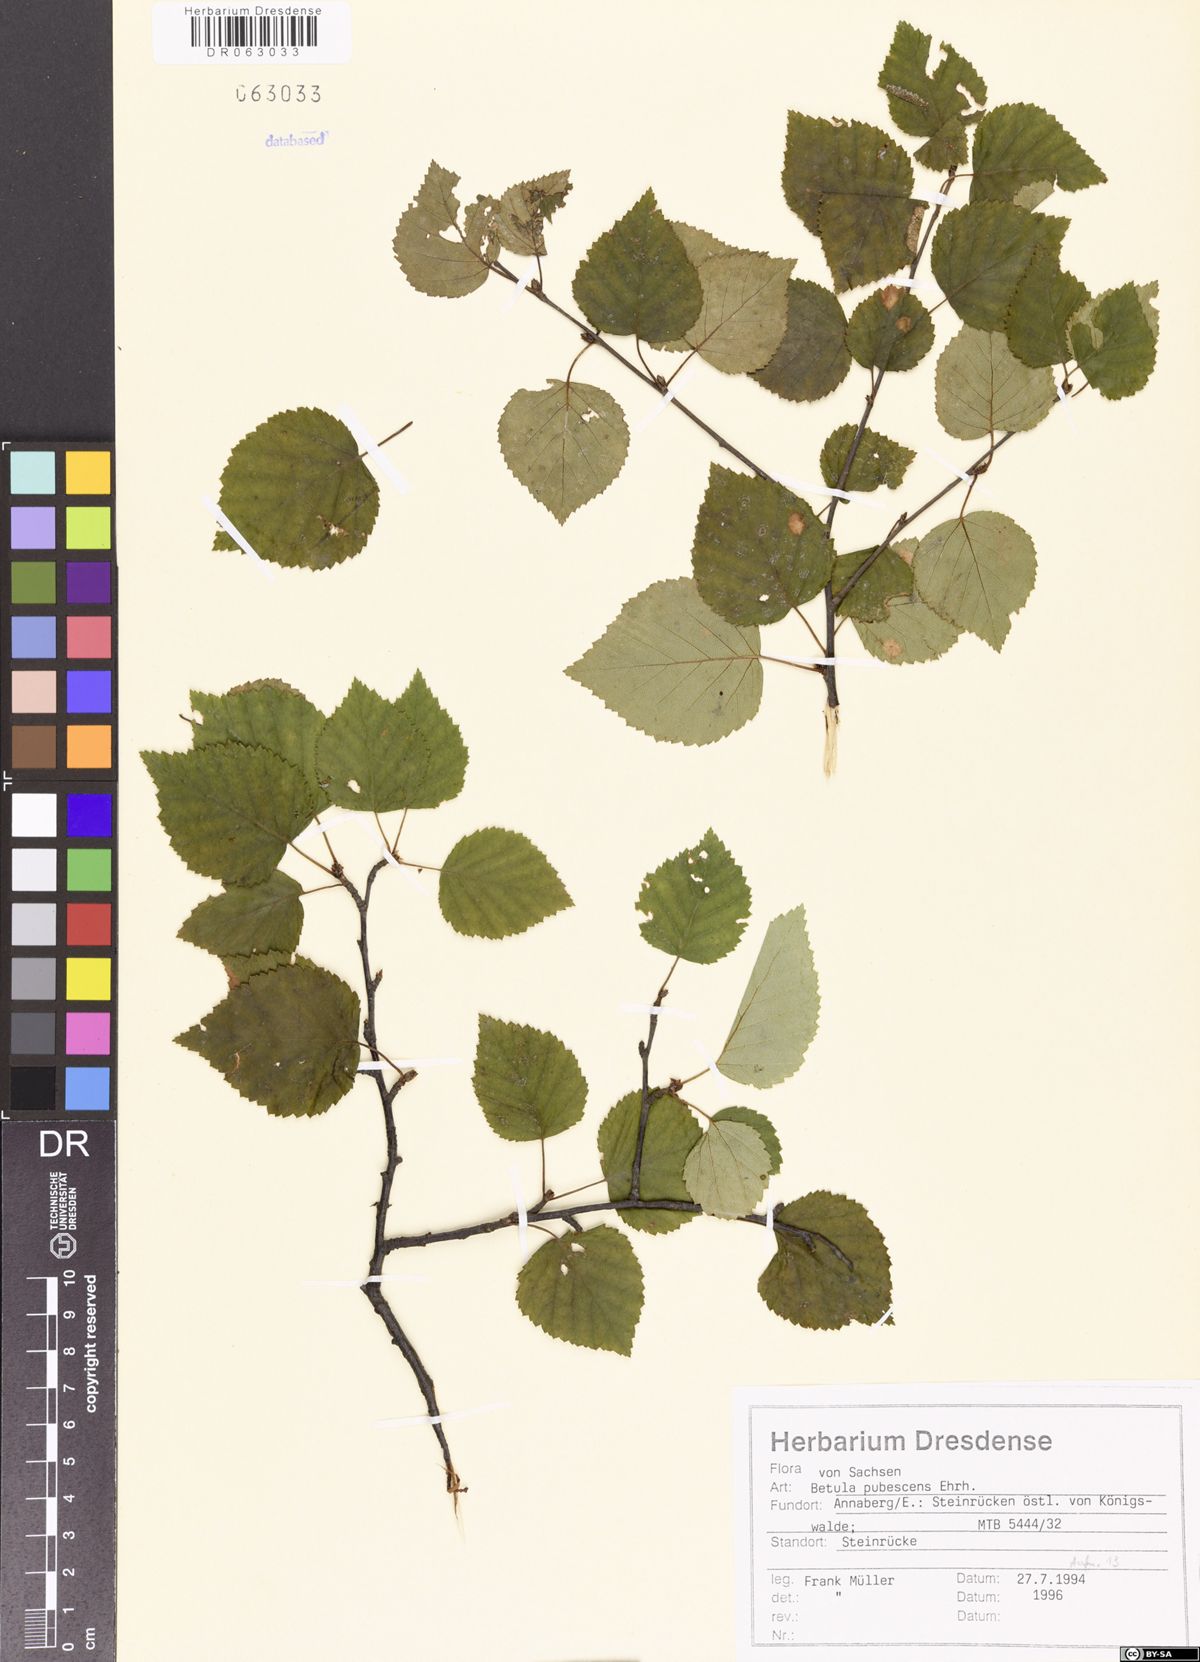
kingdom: Plantae
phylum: Tracheophyta
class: Magnoliopsida
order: Fagales
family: Betulaceae
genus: Betula
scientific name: Betula pubescens
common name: Downy birch
